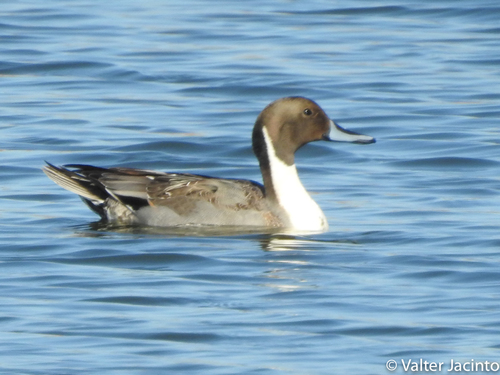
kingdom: Animalia
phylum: Chordata
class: Aves
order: Anseriformes
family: Anatidae
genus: Anas
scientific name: Anas acuta
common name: Northern pintail
